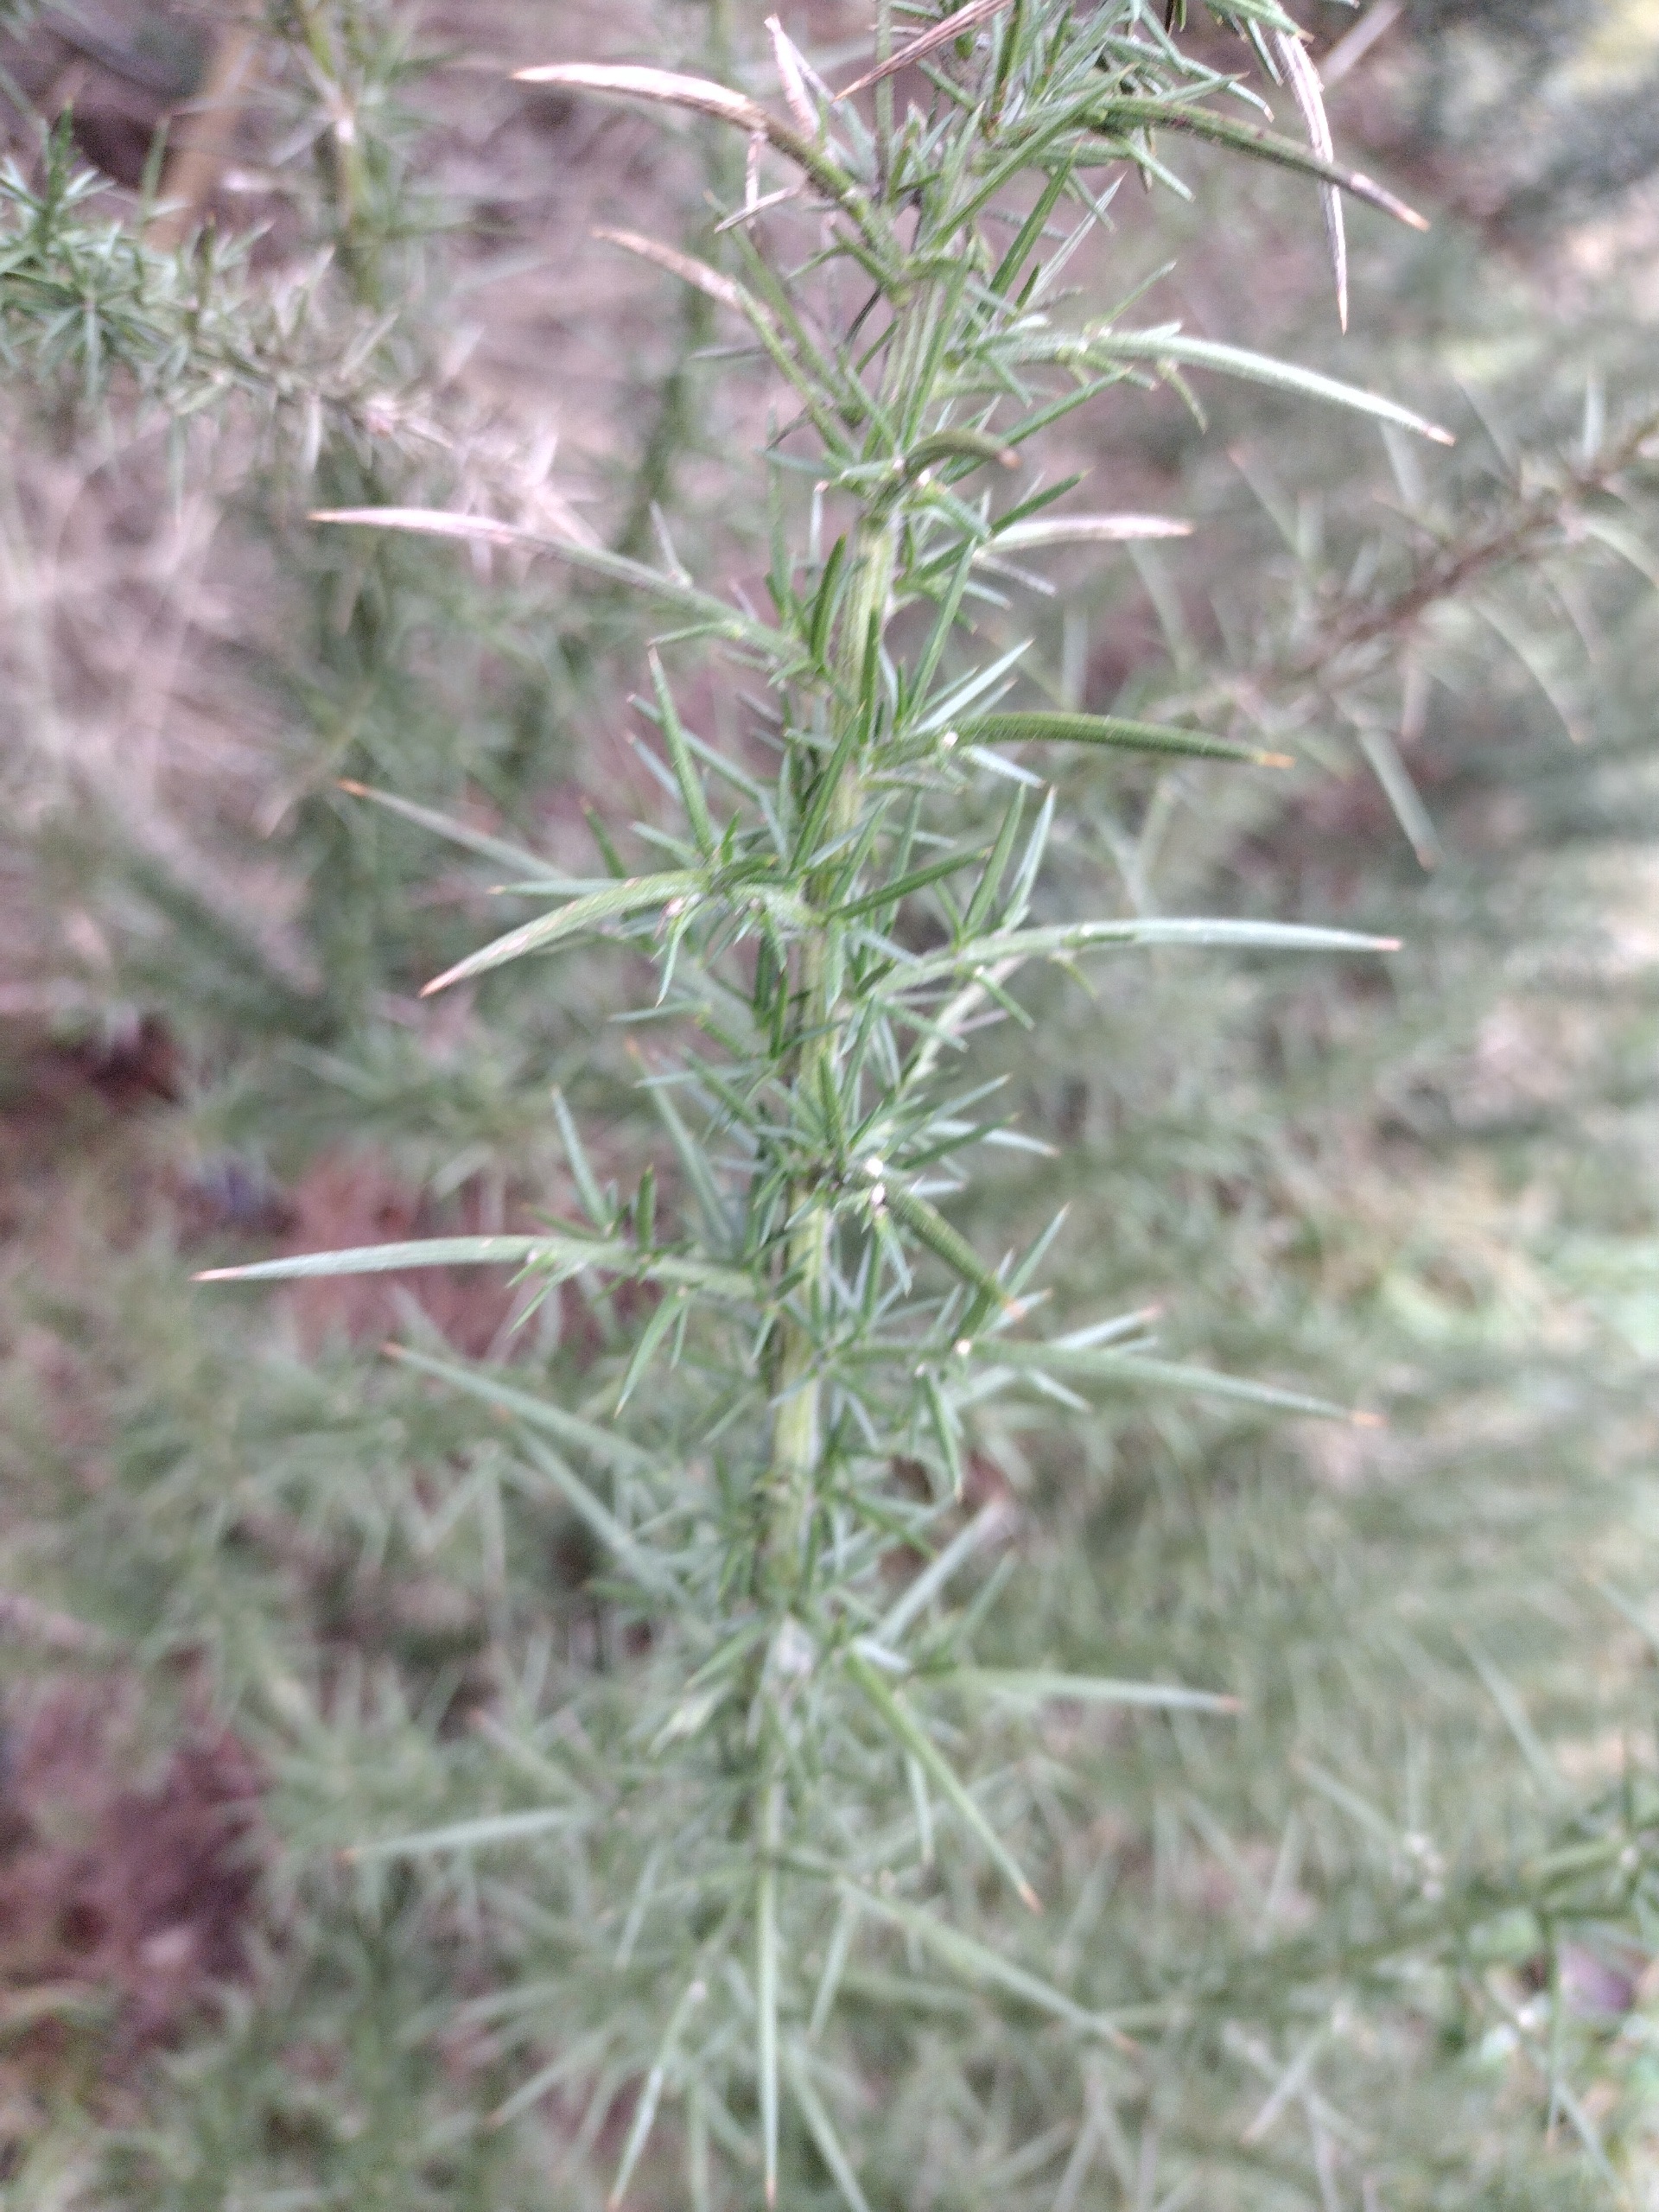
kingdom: Plantae
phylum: Tracheophyta
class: Magnoliopsida
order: Fabales
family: Fabaceae
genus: Ulex
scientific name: Ulex europaeus
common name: Tornblad
